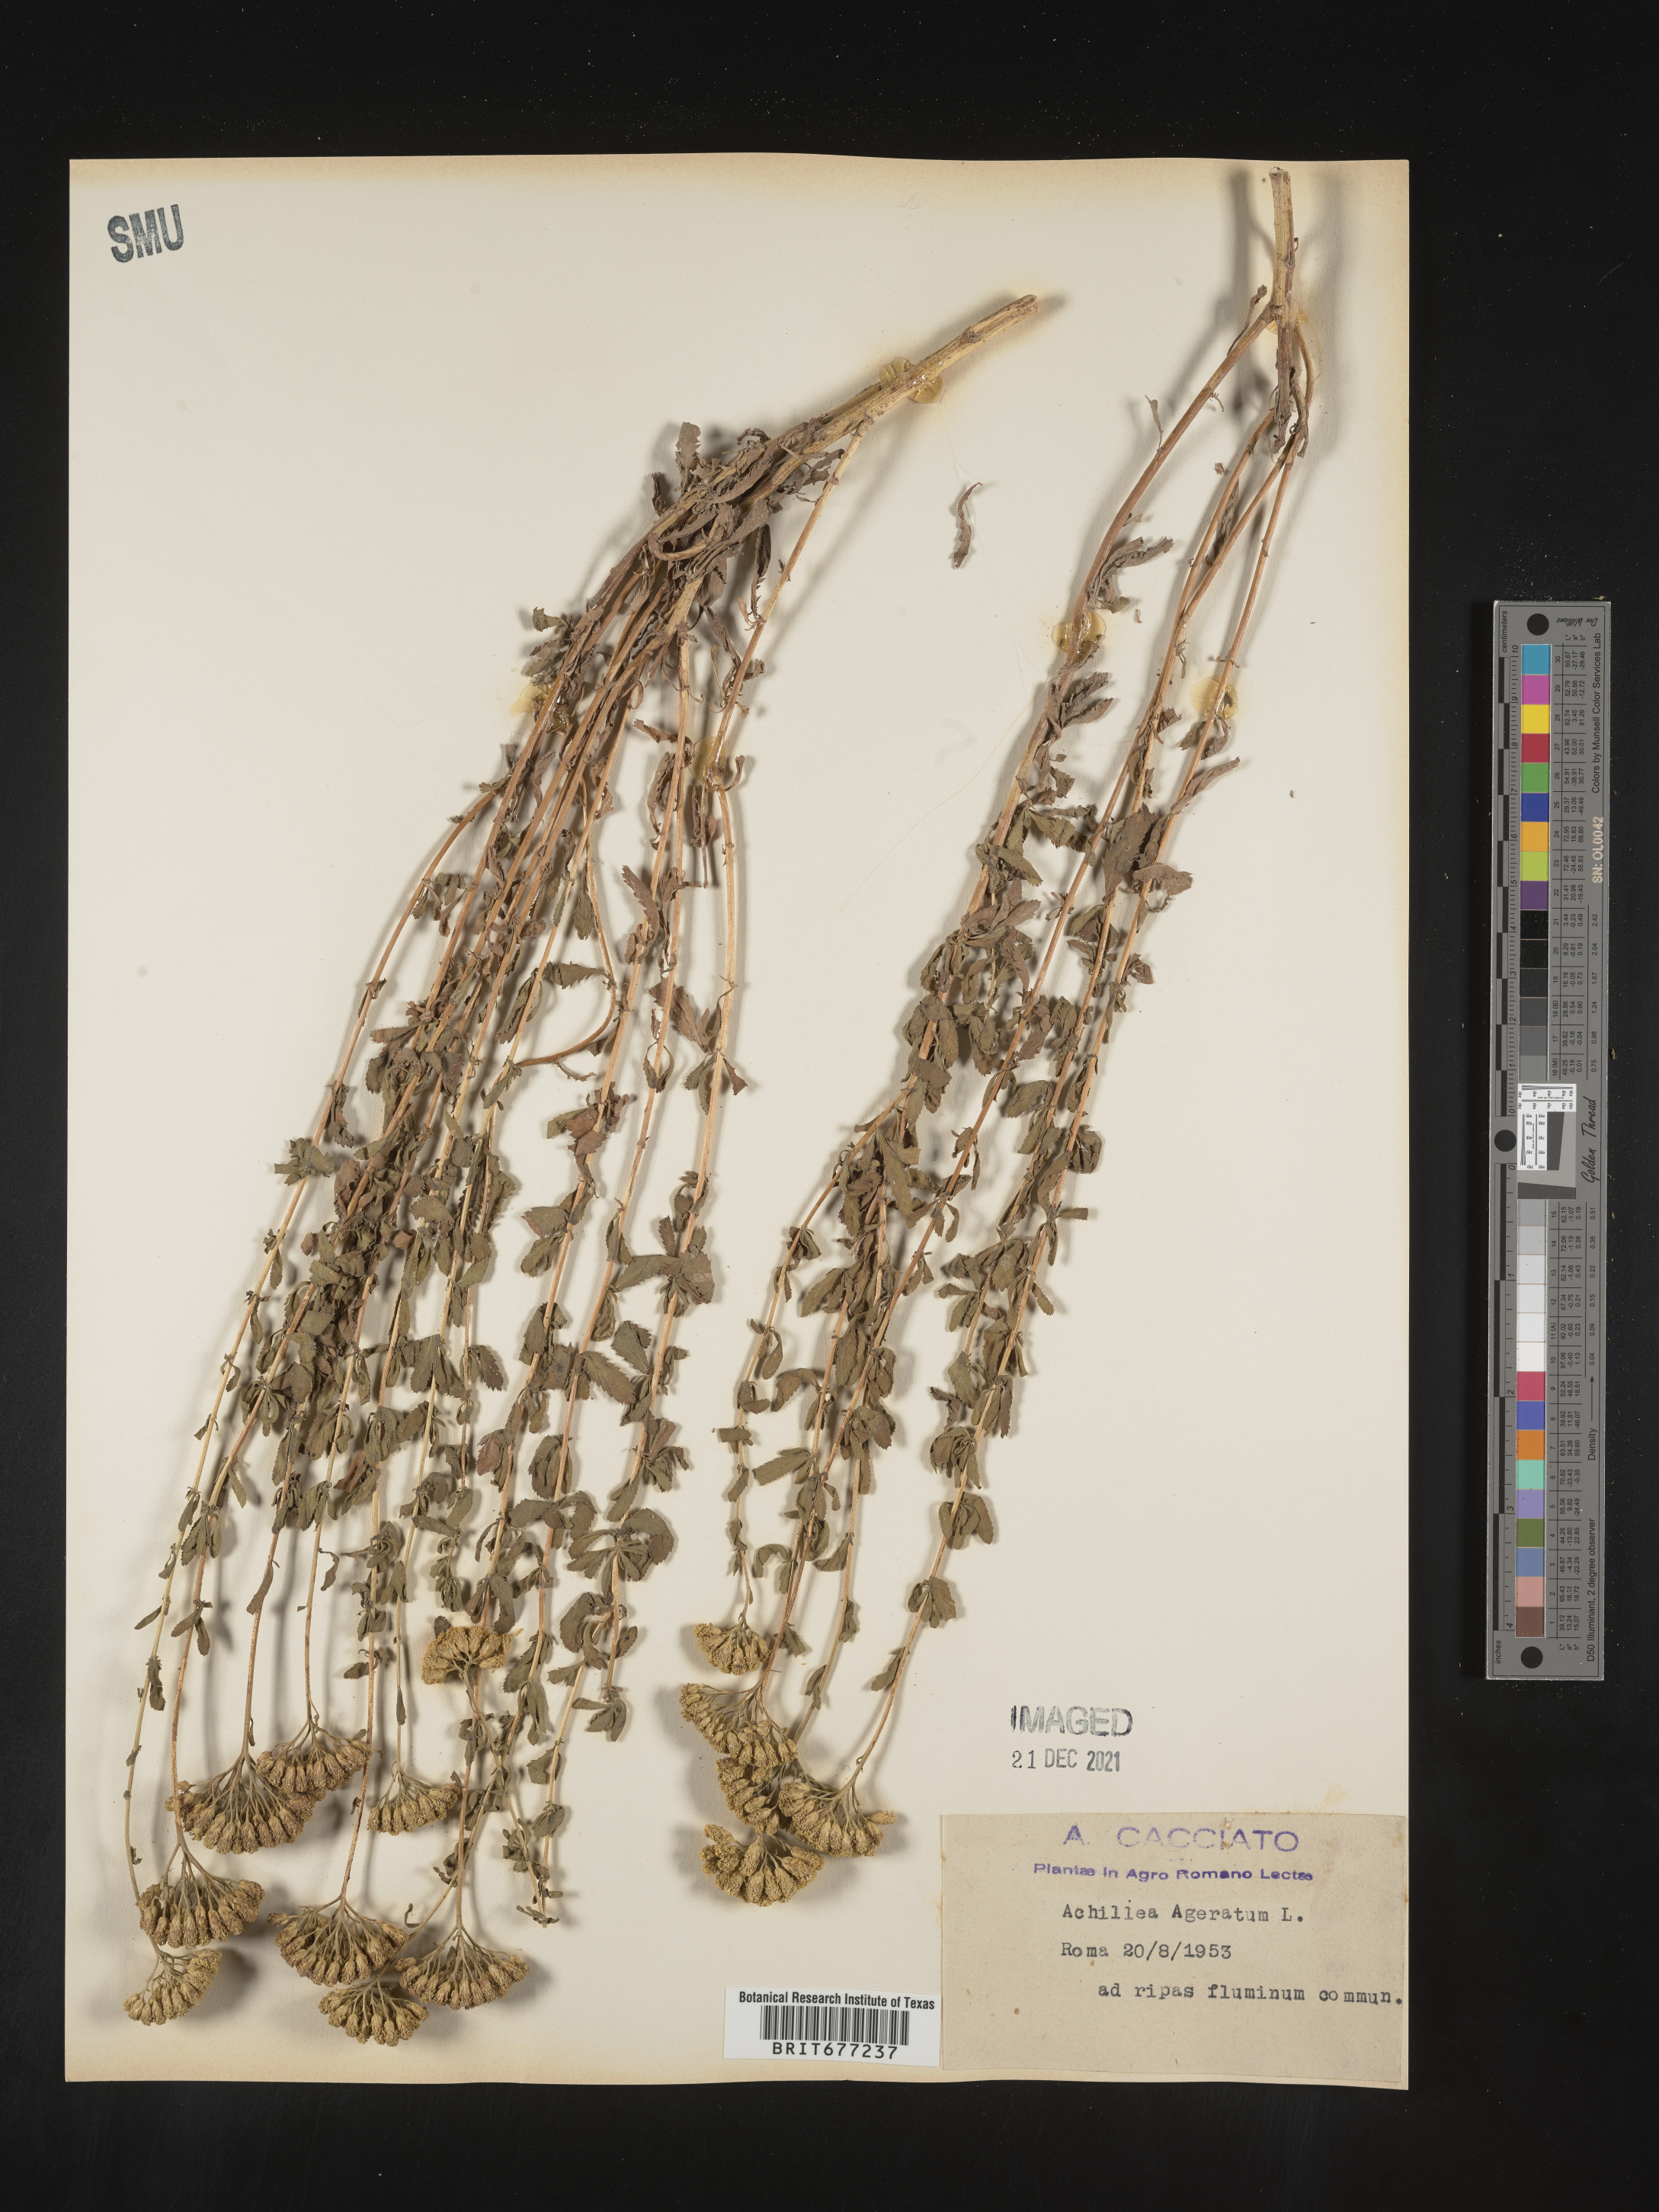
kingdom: Plantae
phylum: Tracheophyta
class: Magnoliopsida
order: Asterales
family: Asteraceae
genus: Achillea
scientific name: Achillea
